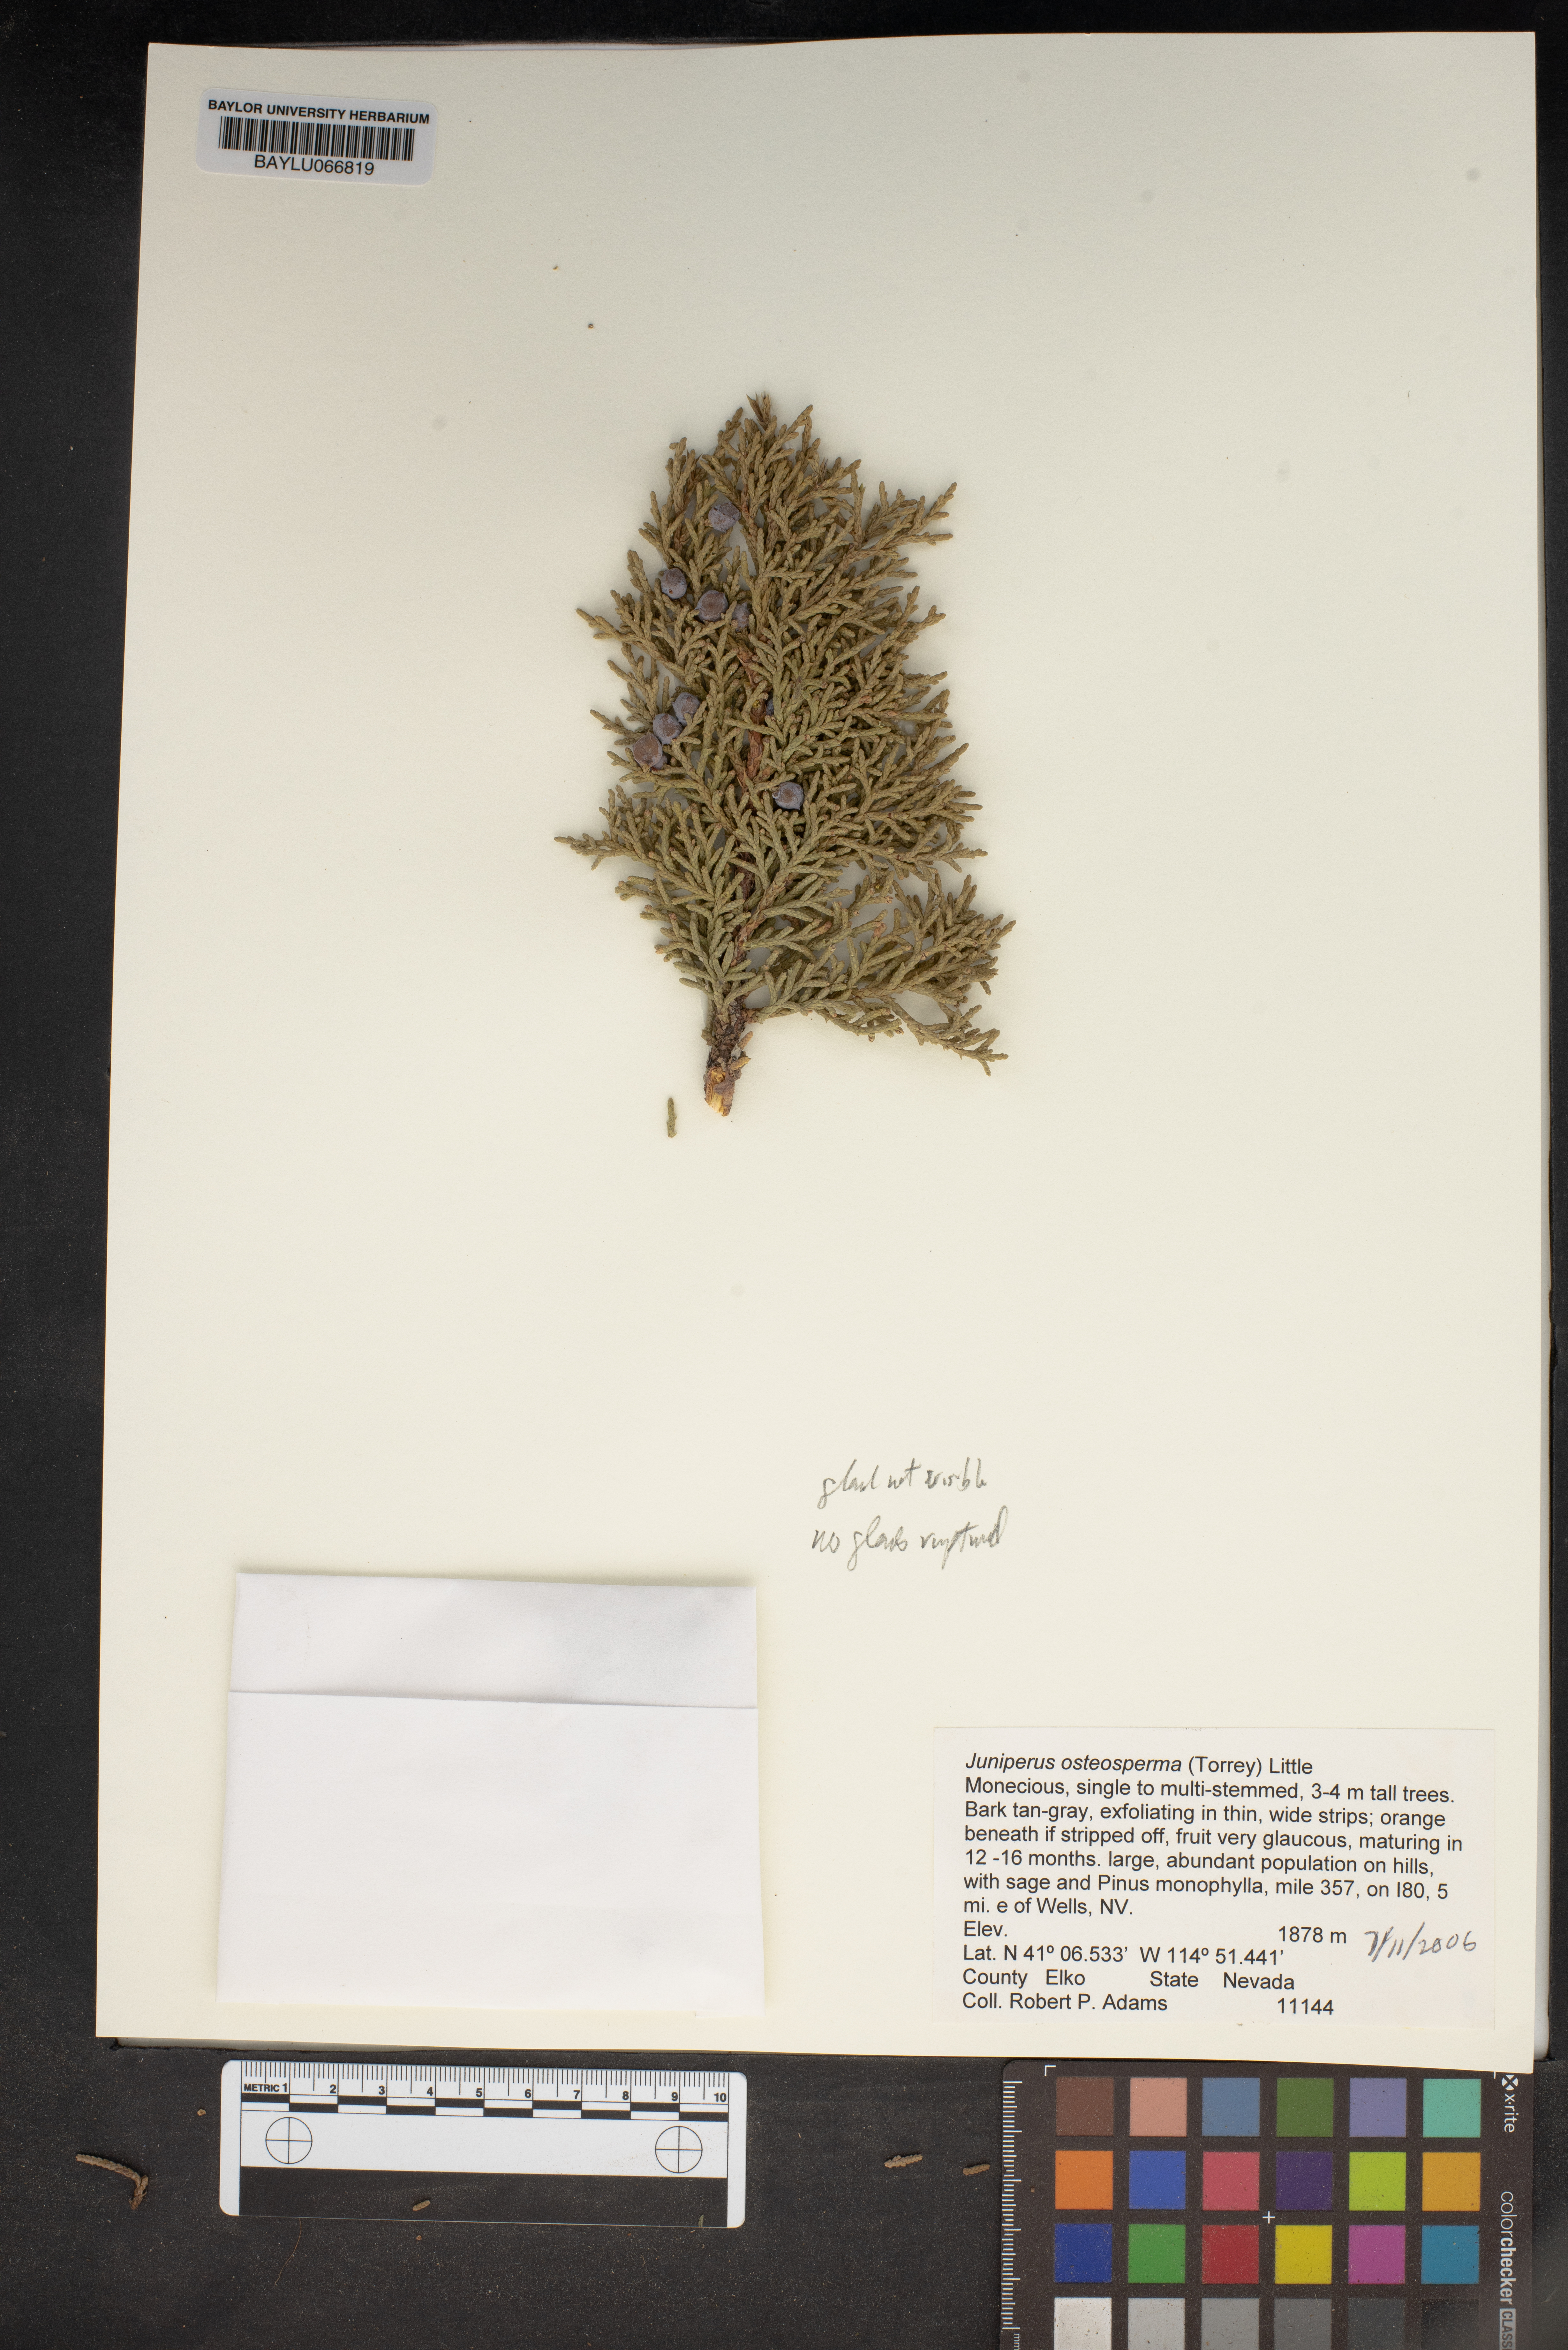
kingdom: Plantae
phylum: Tracheophyta
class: Pinopsida
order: Pinales
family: Cupressaceae
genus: Juniperus
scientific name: Juniperus osteosperma
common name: Utah juniper
